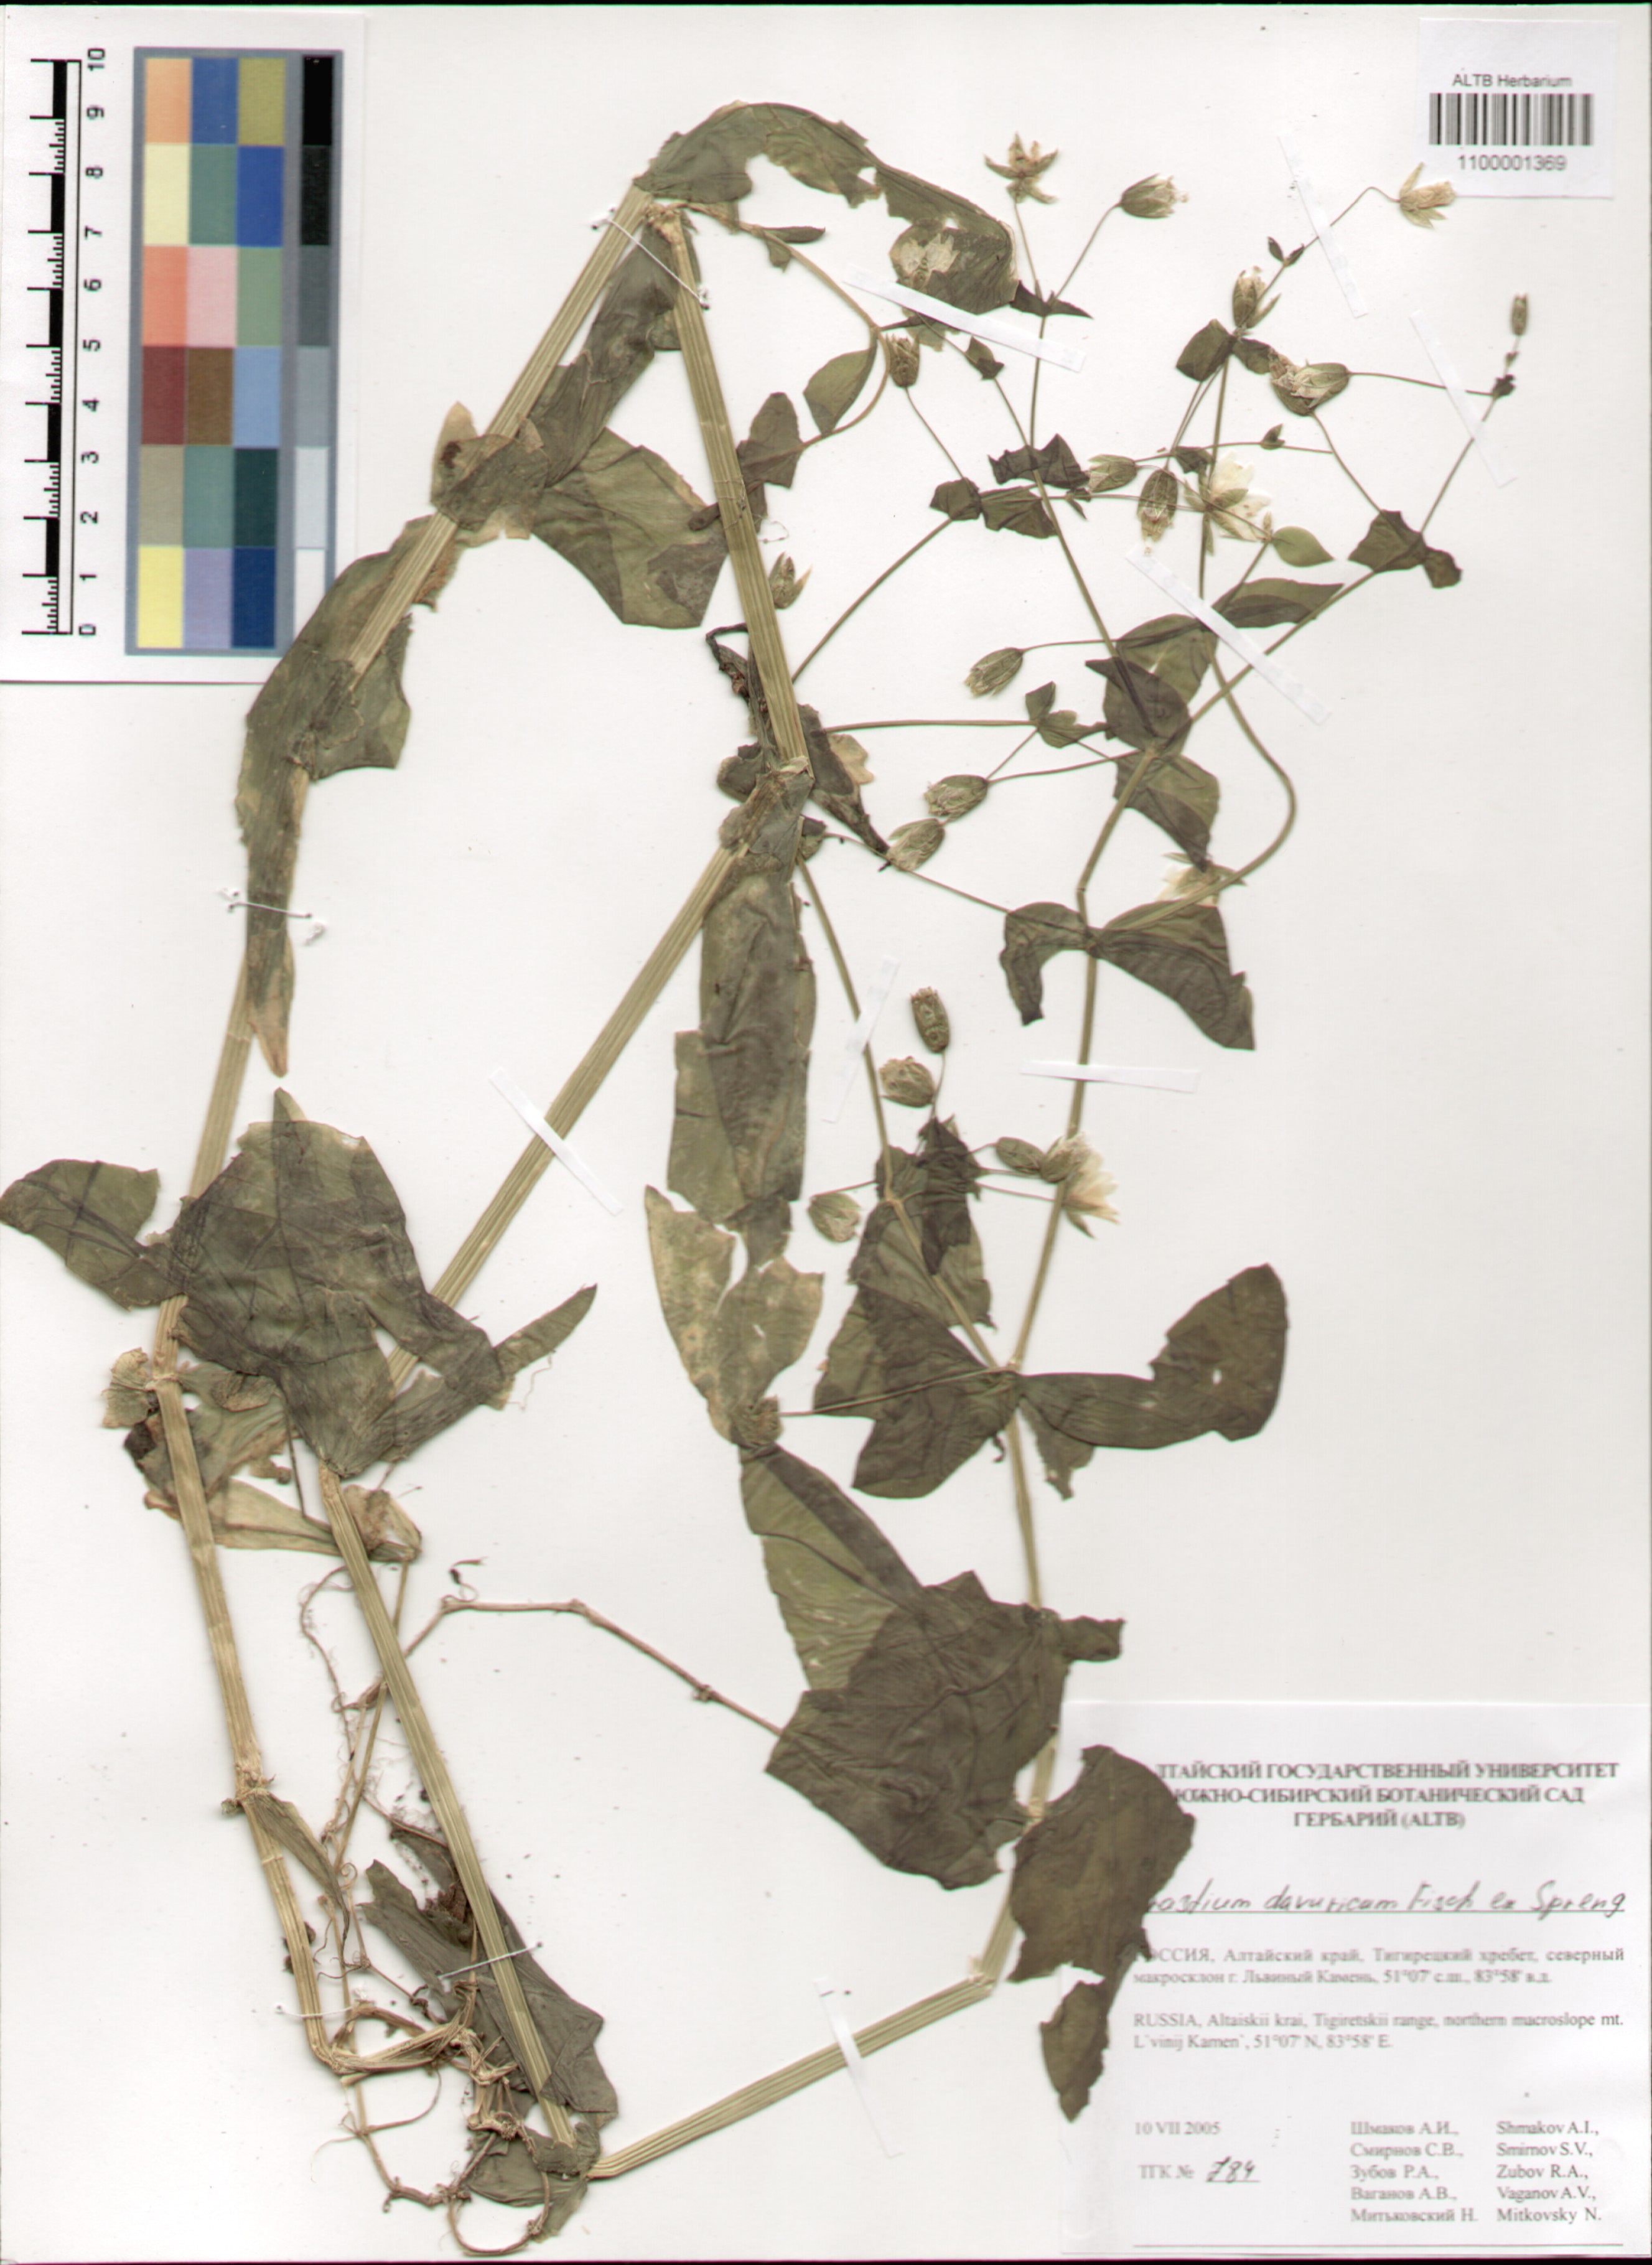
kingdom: Plantae
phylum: Tracheophyta
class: Magnoliopsida
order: Caryophyllales
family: Caryophyllaceae
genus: Dichodon
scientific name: Dichodon davuricum
